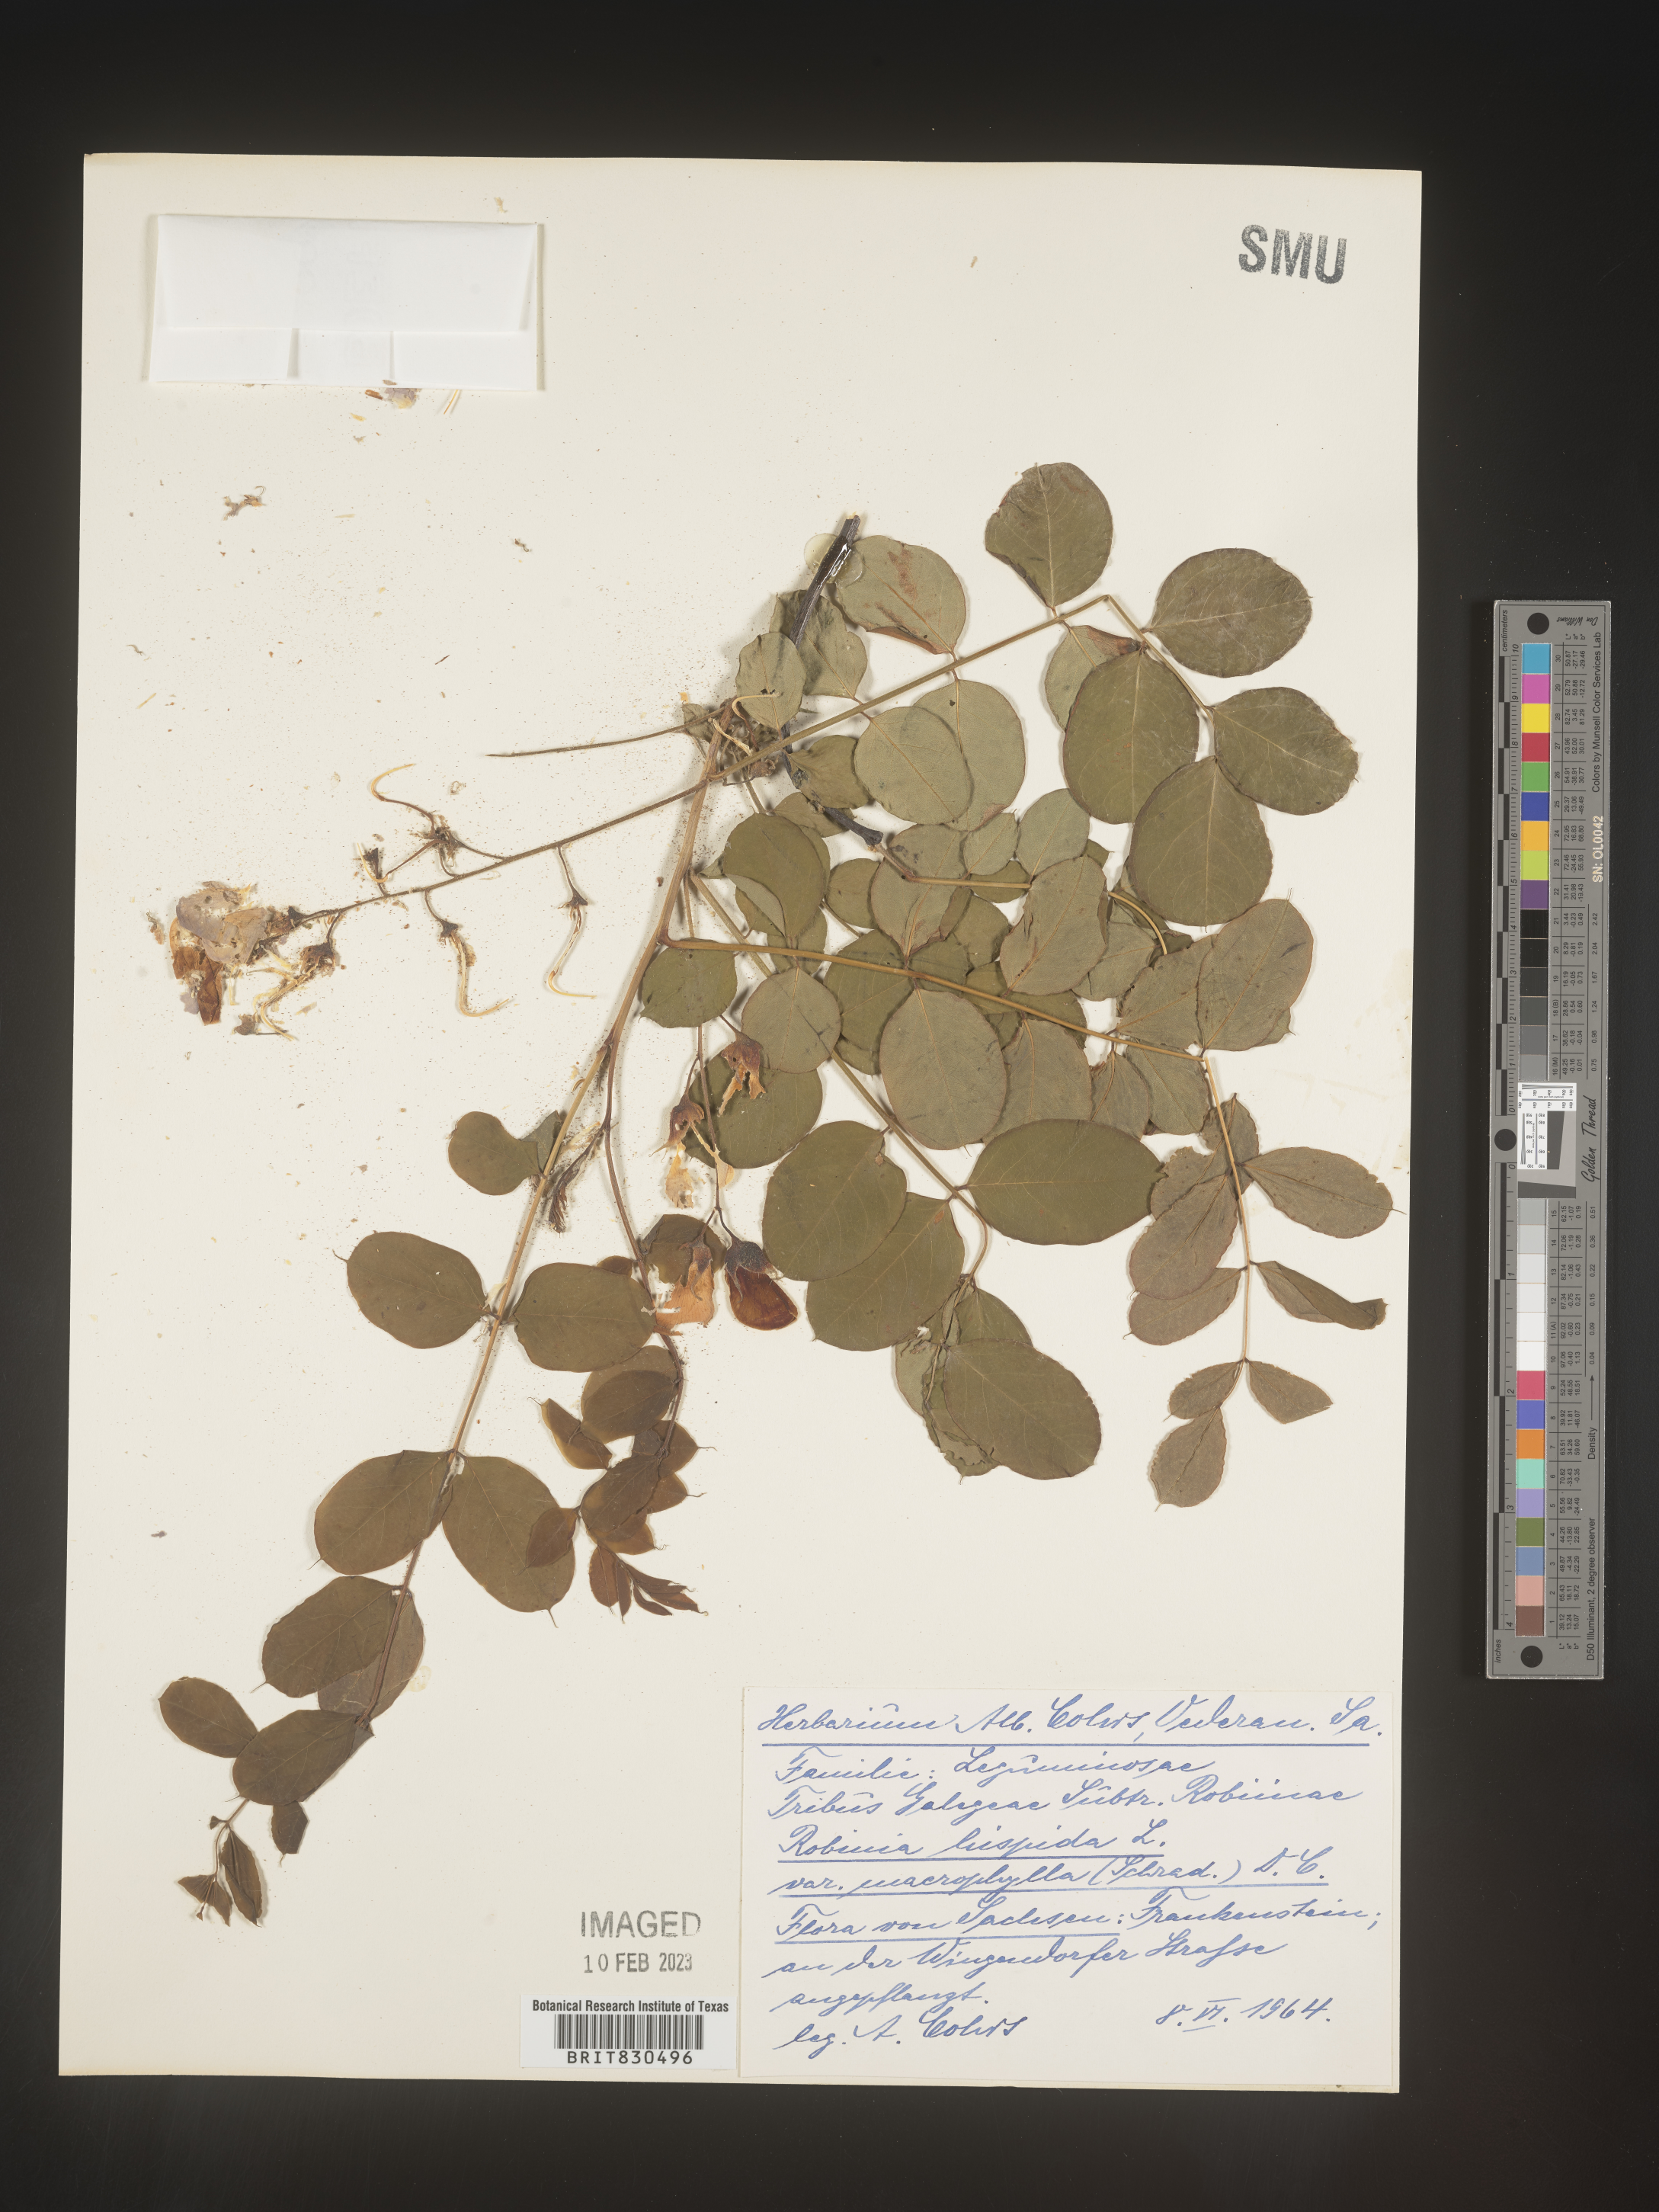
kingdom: Plantae
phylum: Tracheophyta
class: Magnoliopsida
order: Fabales
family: Fabaceae
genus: Robinia
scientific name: Robinia
